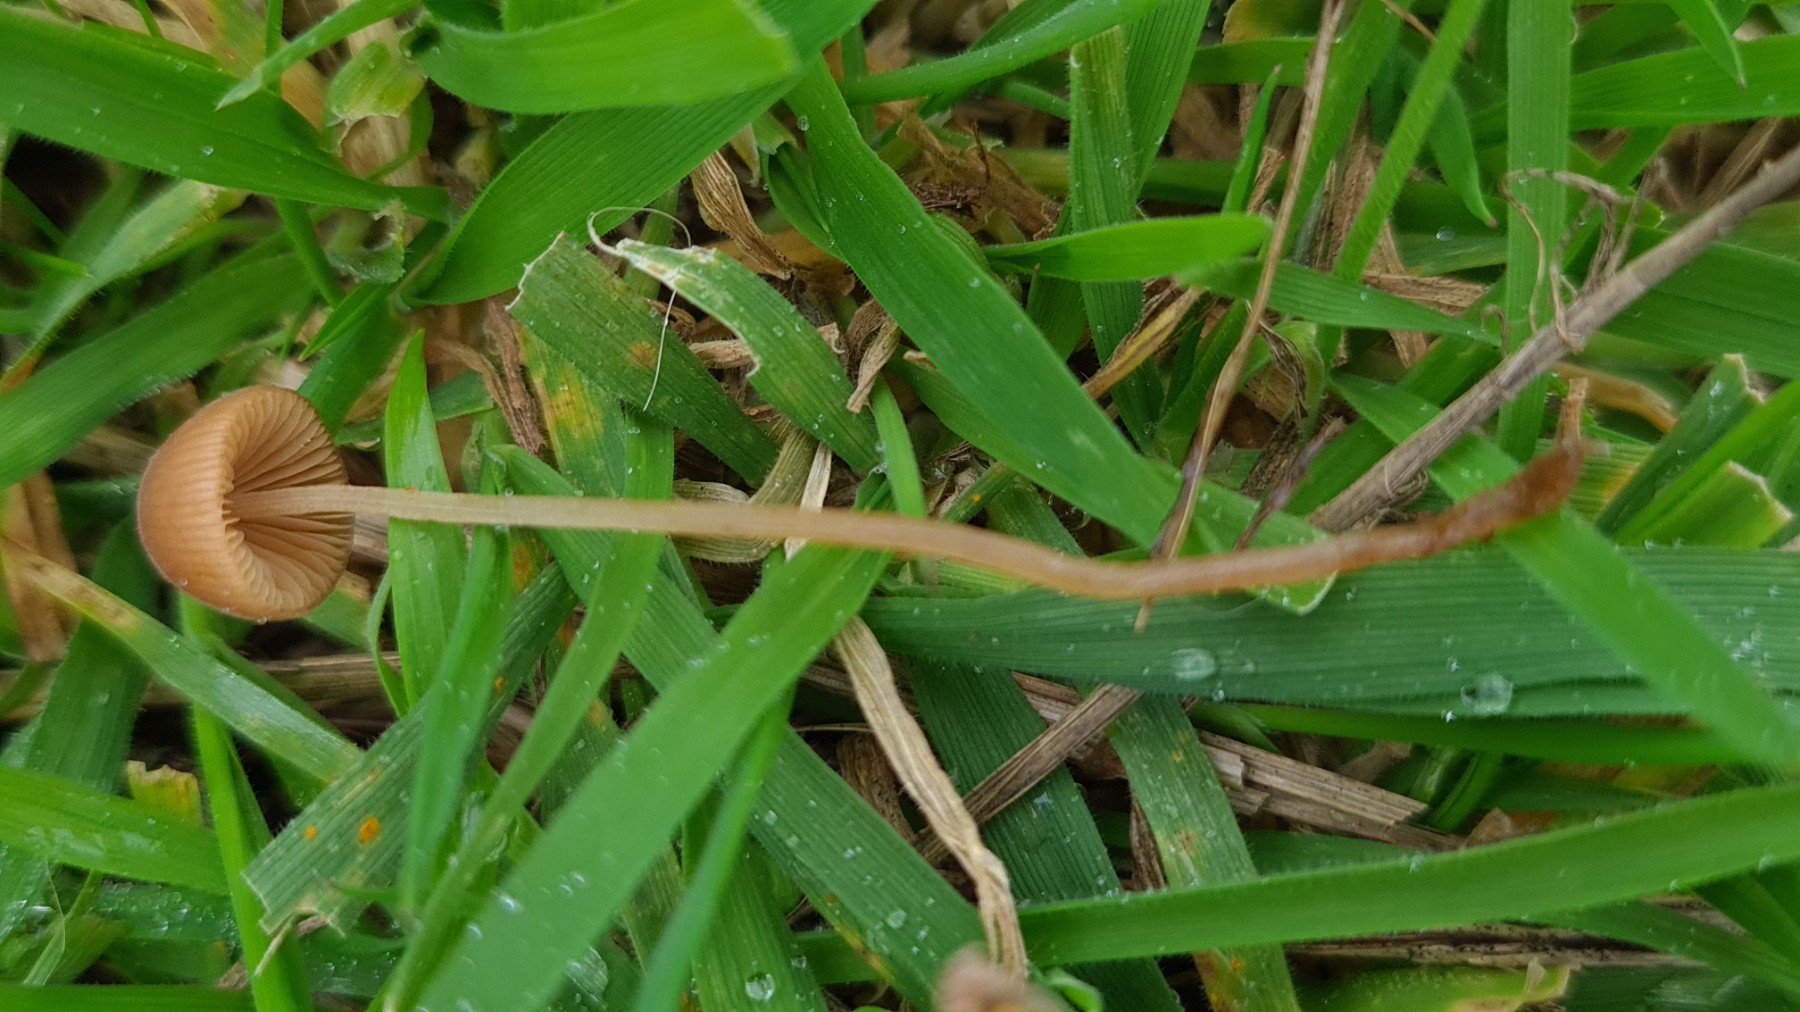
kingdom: Fungi
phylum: Basidiomycota
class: Agaricomycetes
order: Agaricales
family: Bolbitiaceae
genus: Conocybe
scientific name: Conocybe
